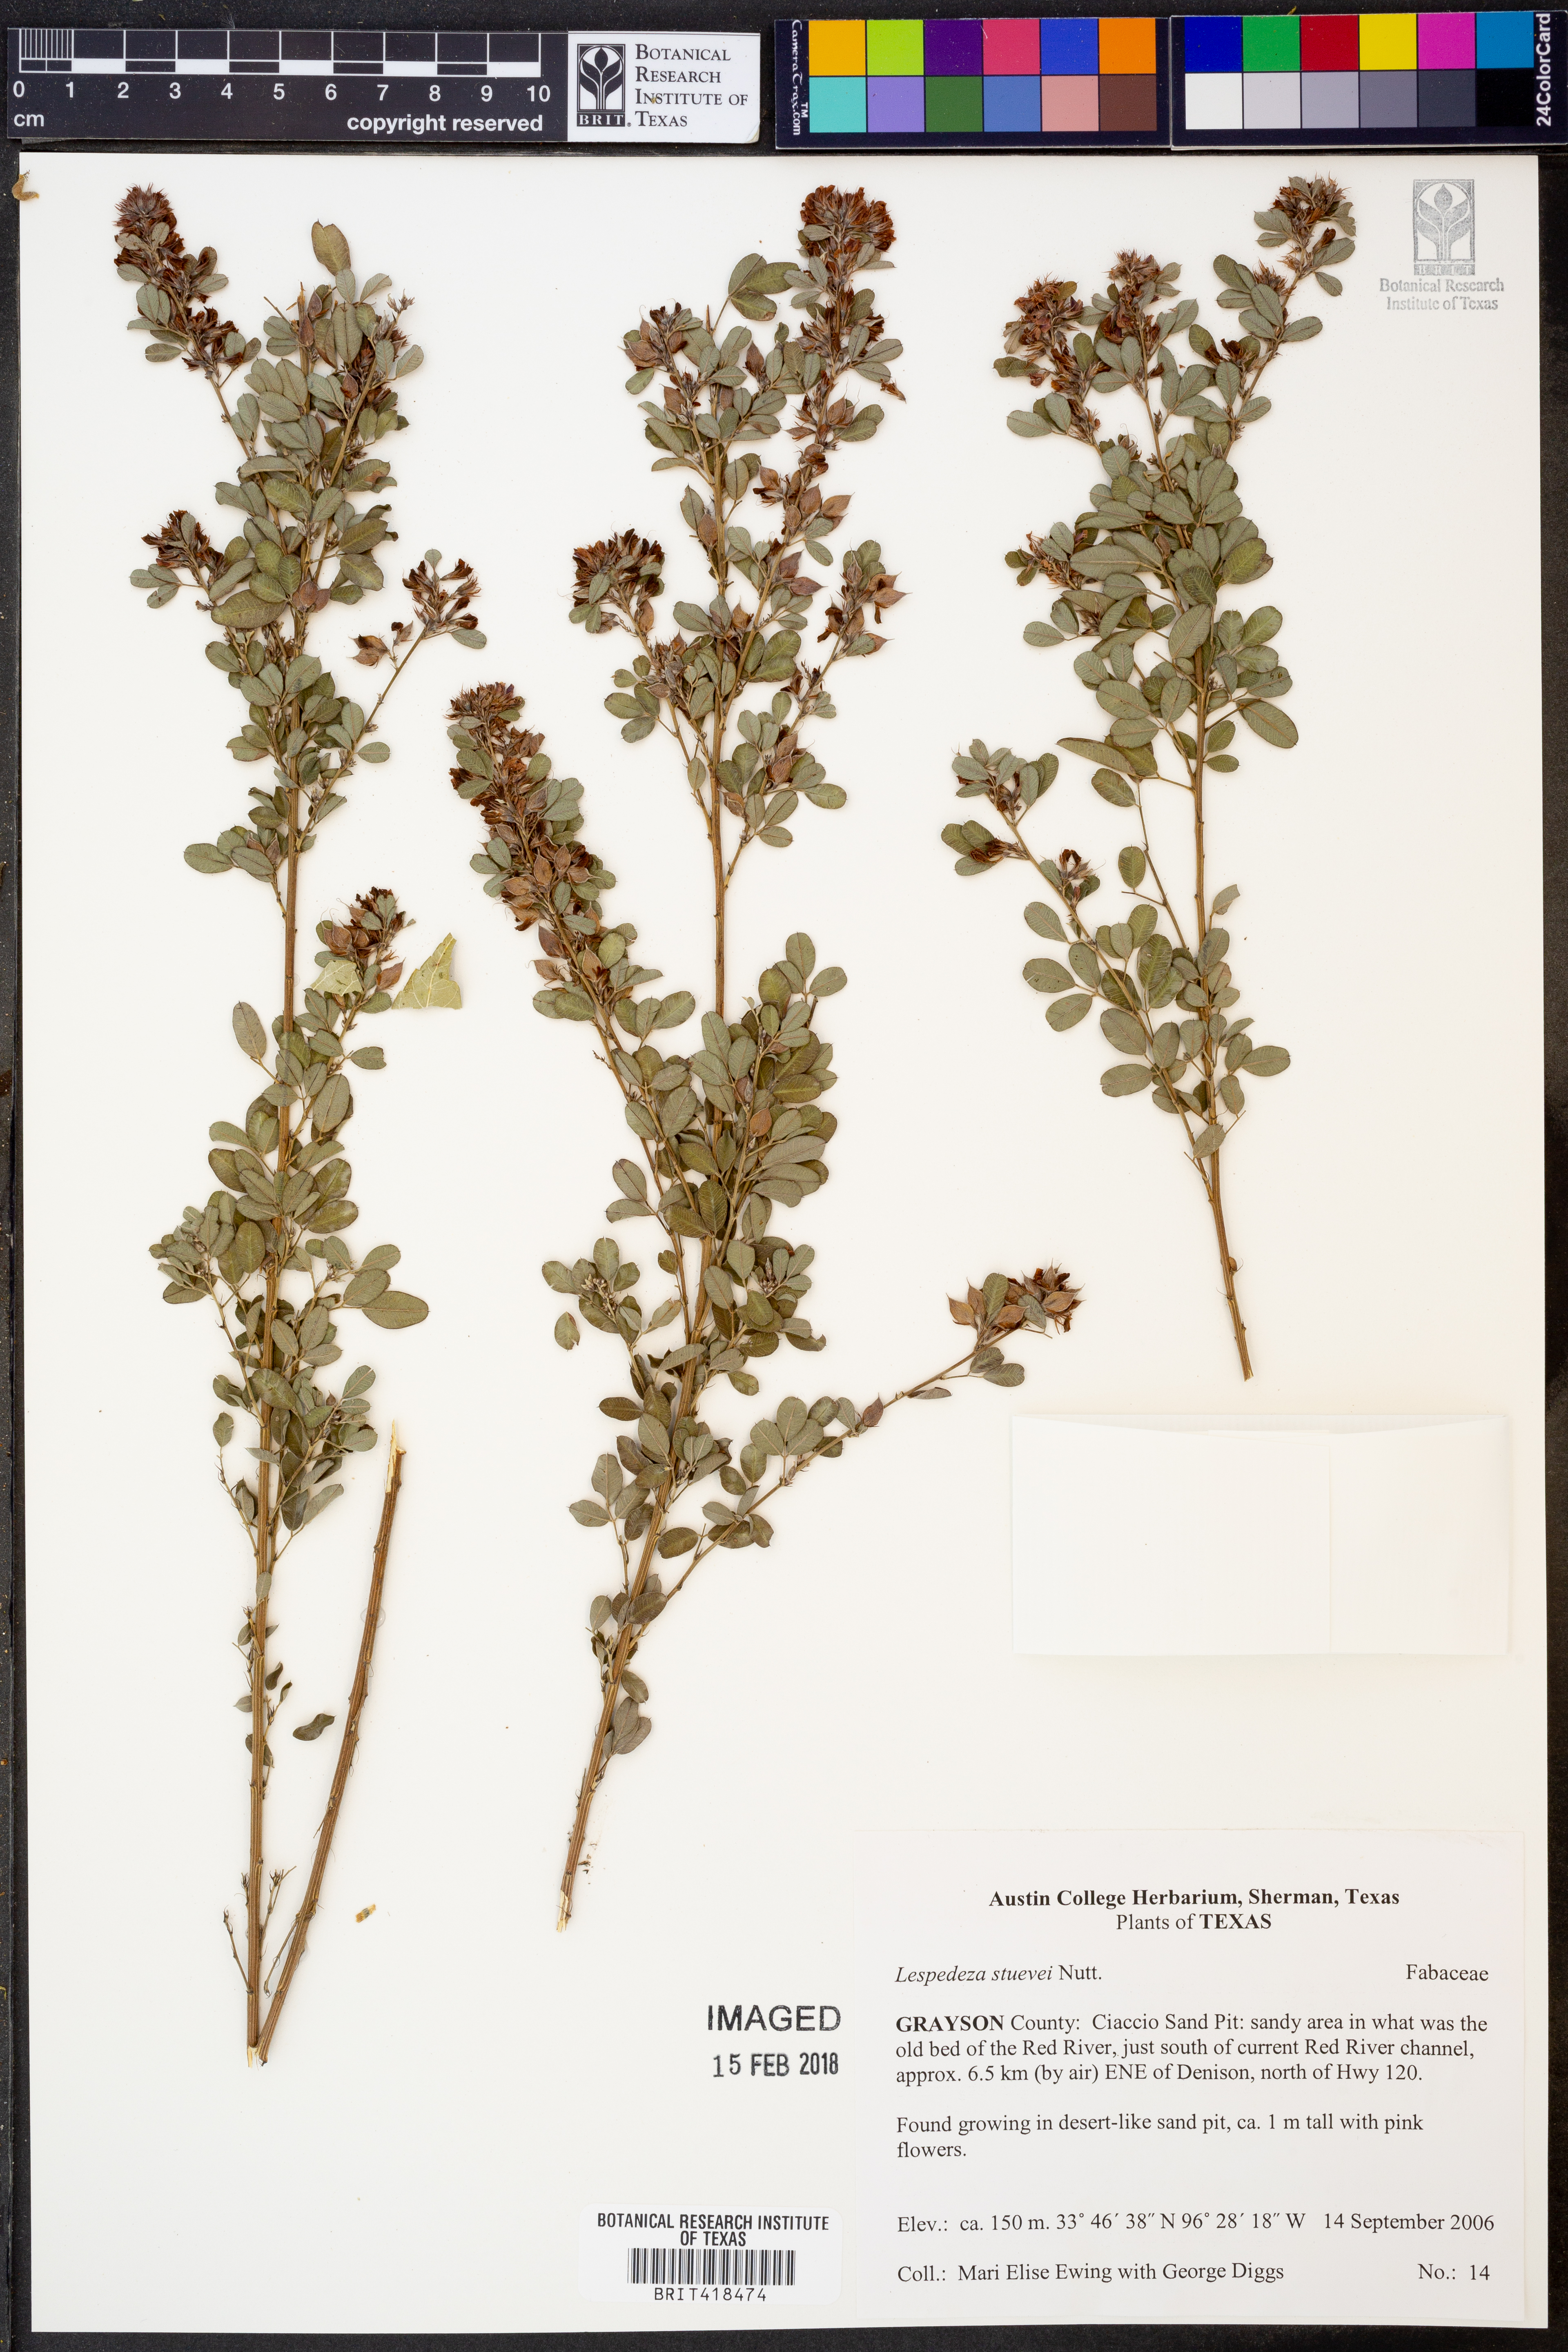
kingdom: Plantae
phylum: Tracheophyta
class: Magnoliopsida
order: Fabales
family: Fabaceae
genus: Lespedeza
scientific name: Lespedeza stuevei
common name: Tall bush-clover
